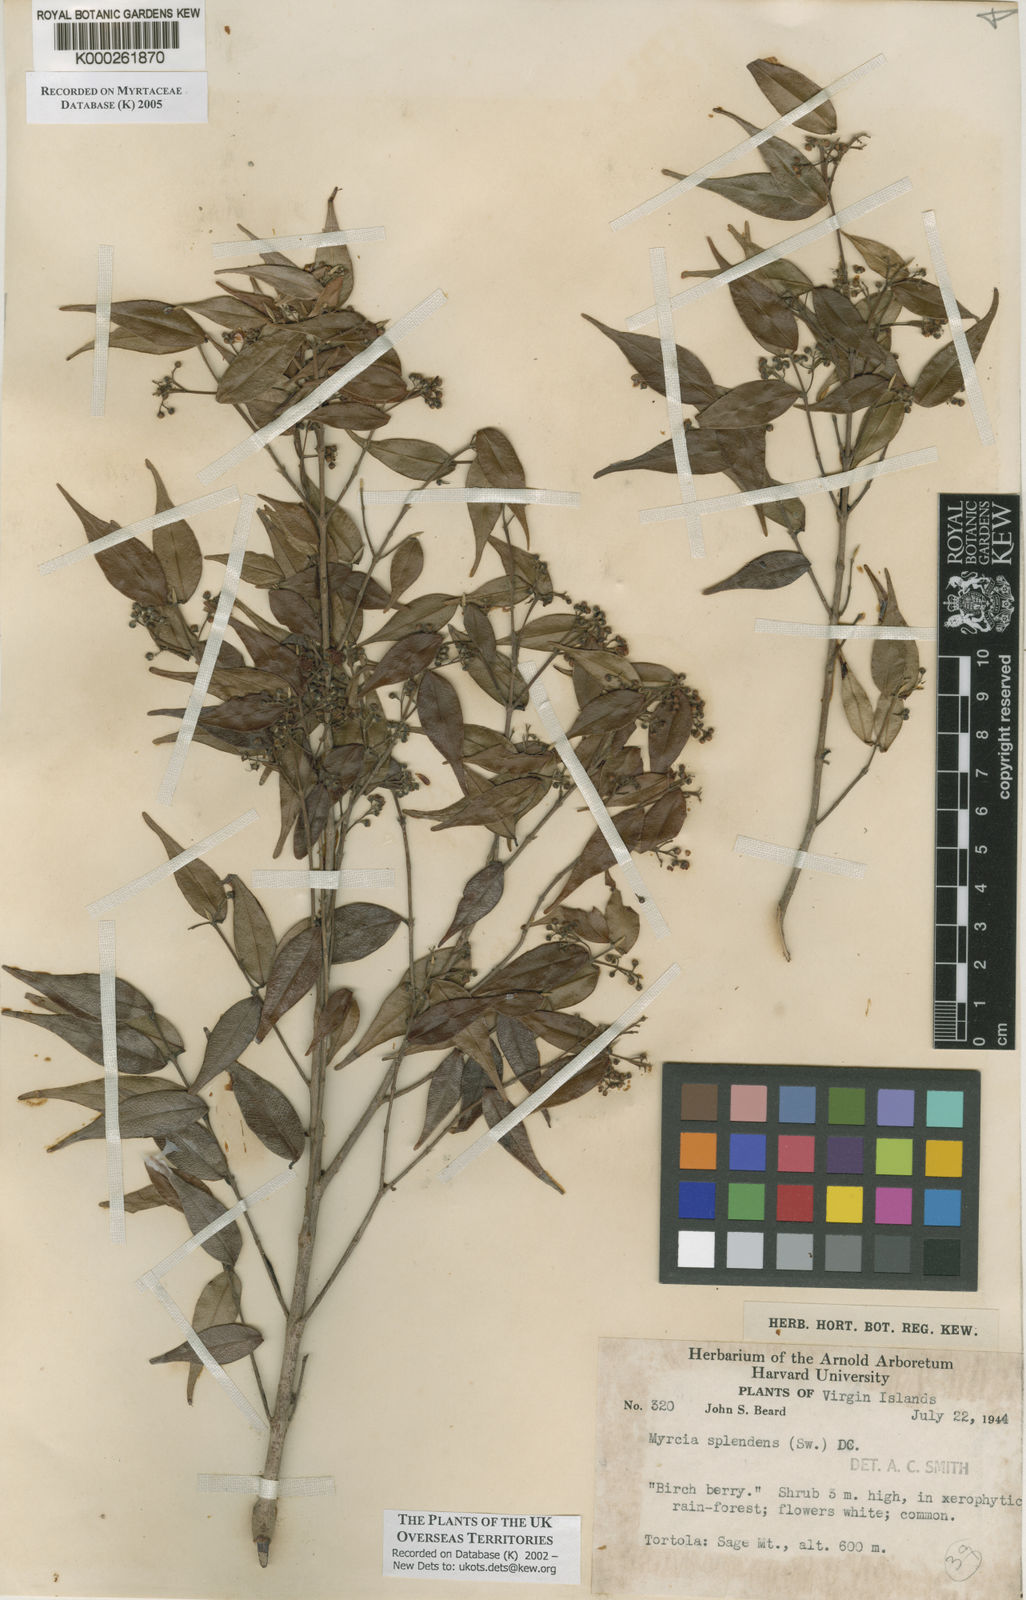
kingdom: Plantae
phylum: Tracheophyta
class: Magnoliopsida
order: Myrtales
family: Myrtaceae
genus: Myrcia
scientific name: Myrcia splendens
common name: Surinam cherry
